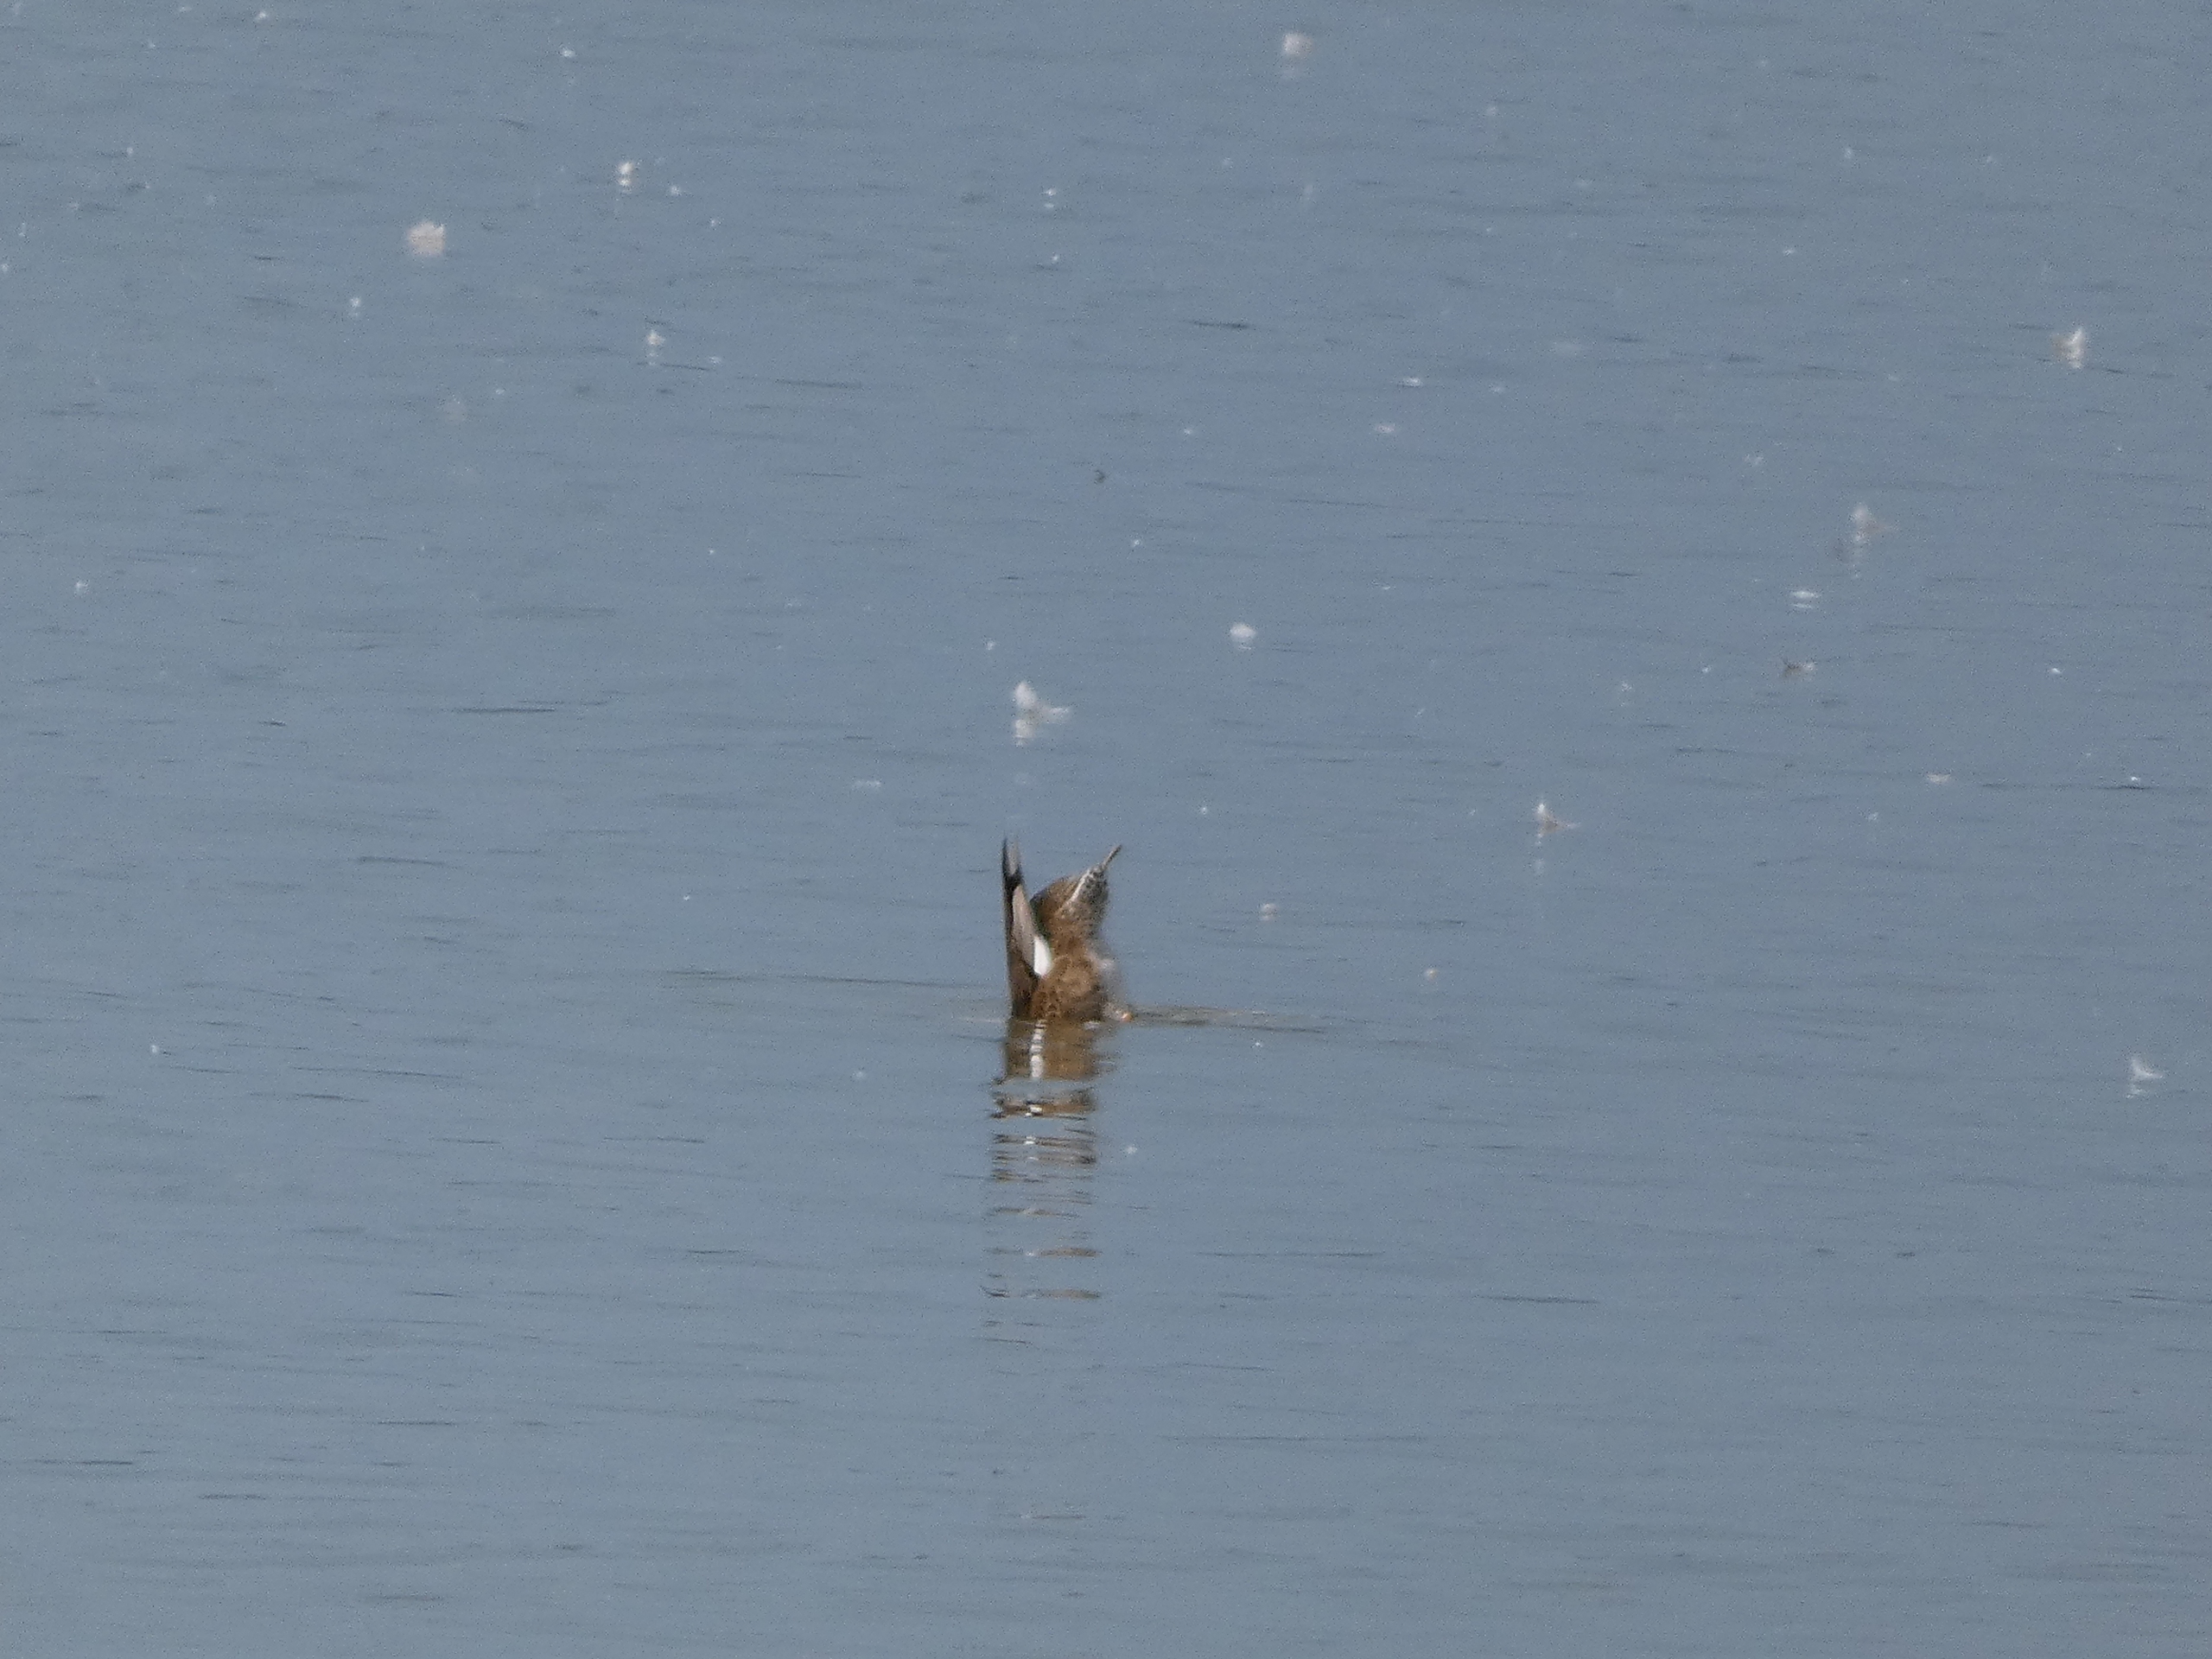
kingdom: Animalia
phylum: Chordata
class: Aves
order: Anseriformes
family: Anatidae
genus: Mareca
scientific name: Mareca strepera
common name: Knarand
